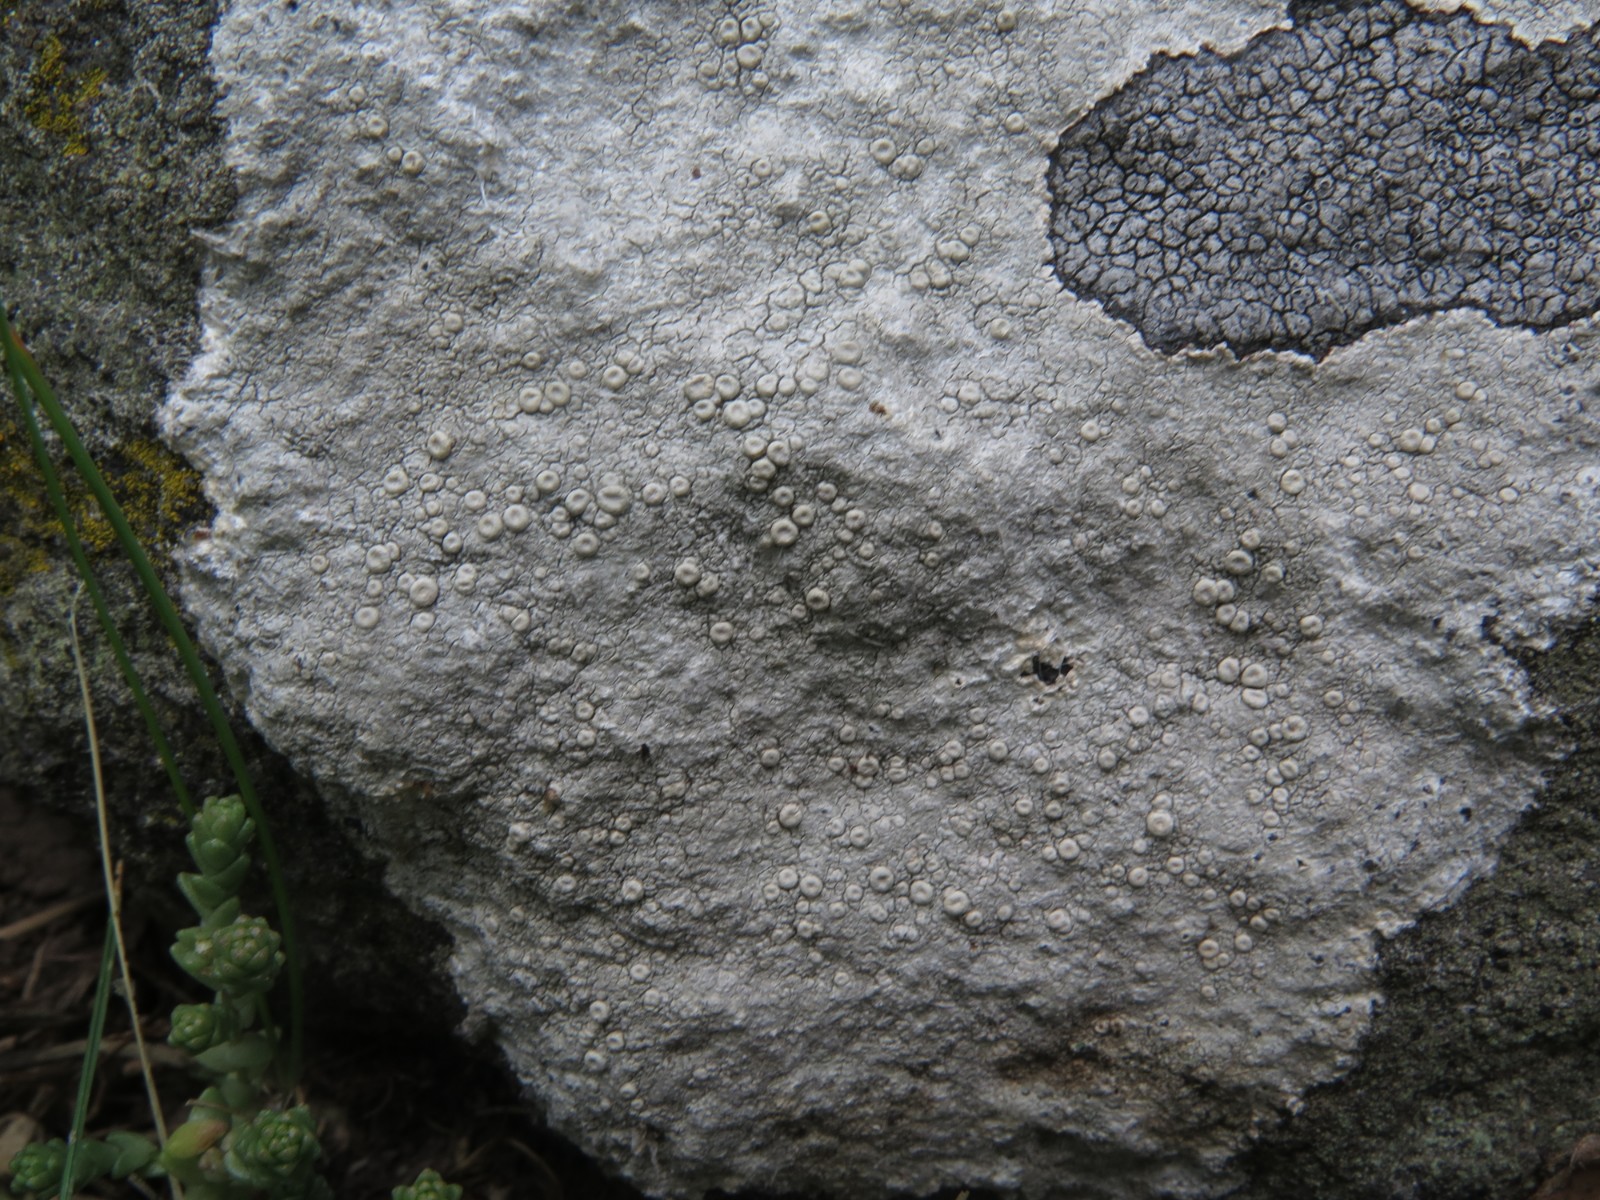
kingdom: Fungi
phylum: Ascomycota
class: Lecanoromycetes
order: Pertusariales
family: Ochrolechiaceae
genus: Ochrolechia
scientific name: Ochrolechia parella
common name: almindelig blegskivelav
